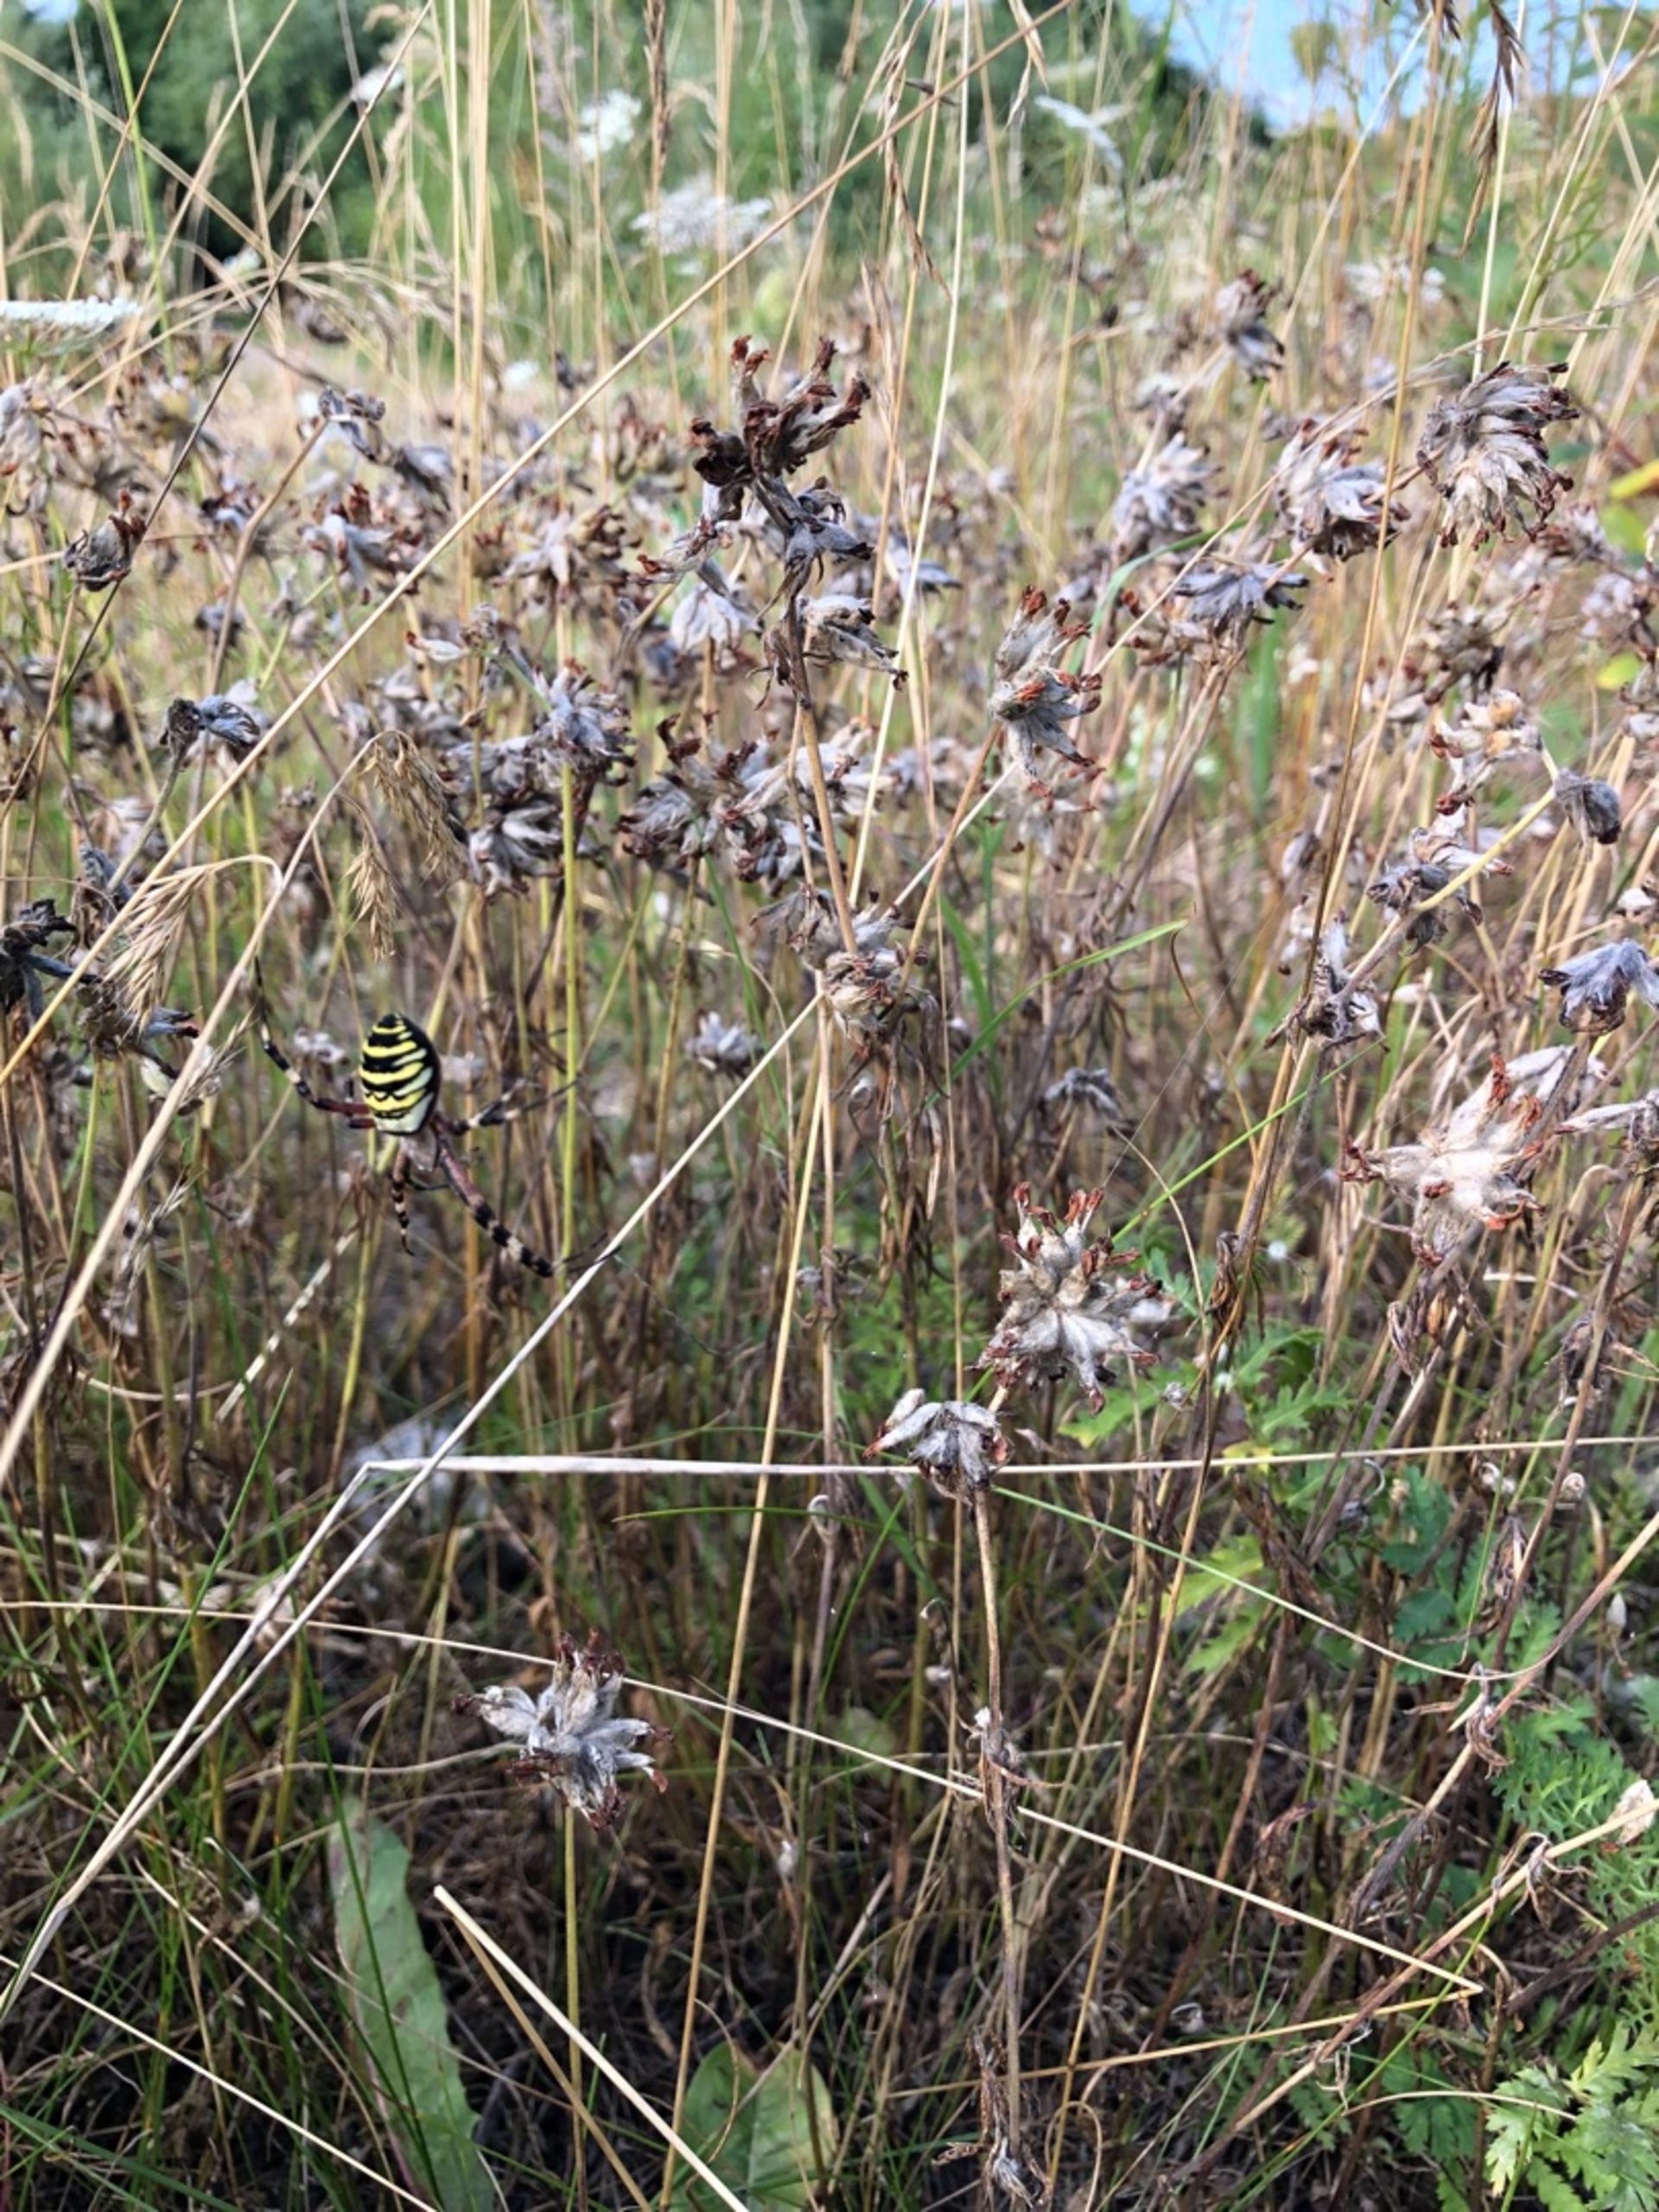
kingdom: Animalia
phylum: Arthropoda
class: Arachnida
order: Araneae
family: Araneidae
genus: Argiope
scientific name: Argiope bruennichi
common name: Hvepseedderkop
